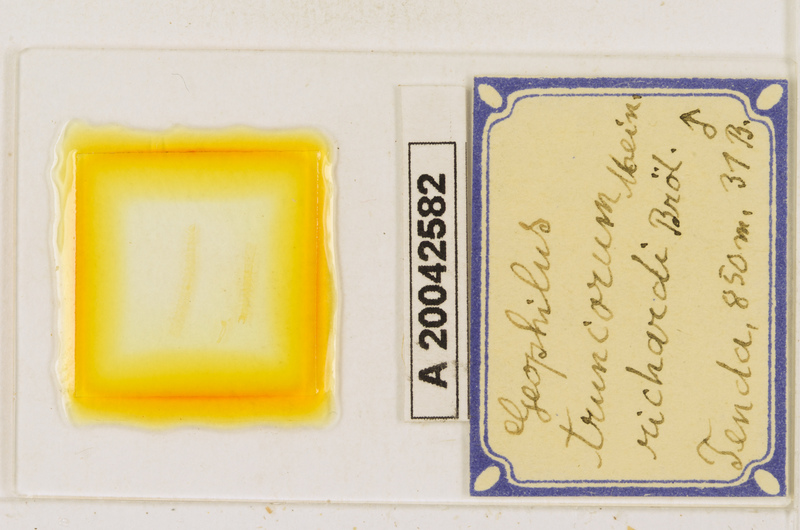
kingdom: Animalia
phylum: Arthropoda
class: Chilopoda
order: Geophilomorpha
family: Geophilidae
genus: Geophilus
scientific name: Geophilus truncorum
